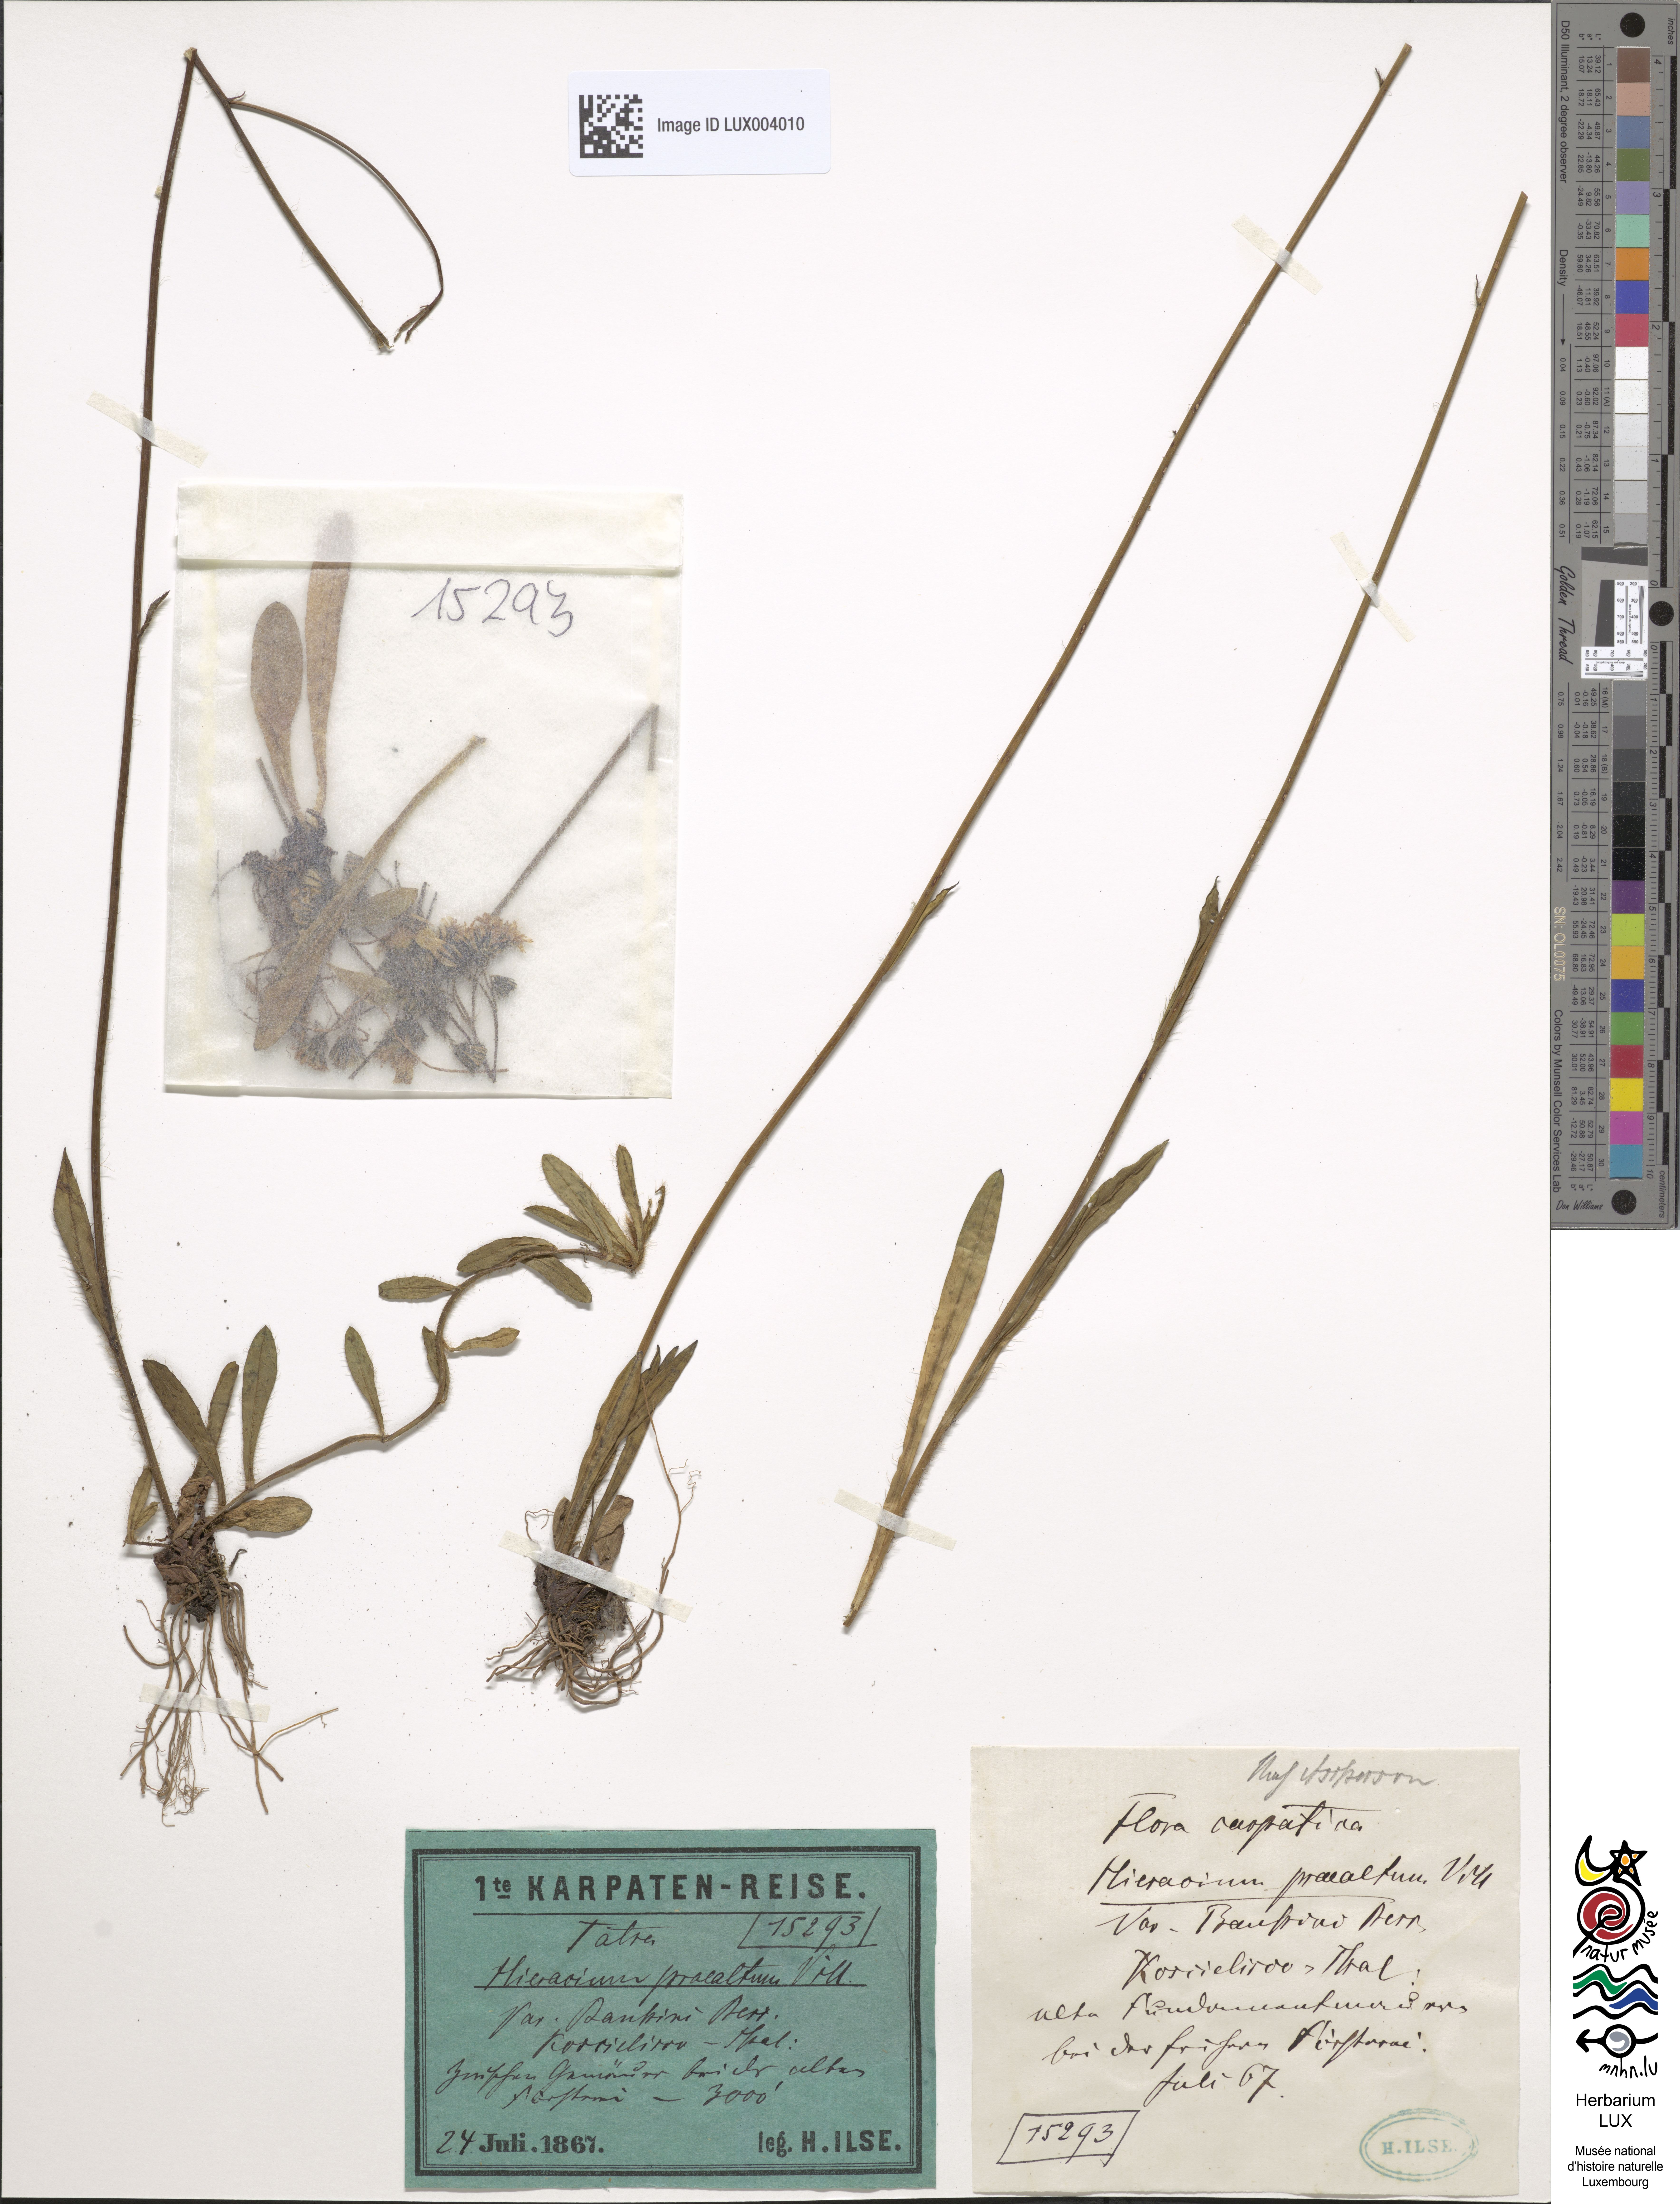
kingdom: Plantae
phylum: Tracheophyta
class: Magnoliopsida
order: Asterales
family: Asteraceae
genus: Hieracium
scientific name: Hieracium piloselloides
